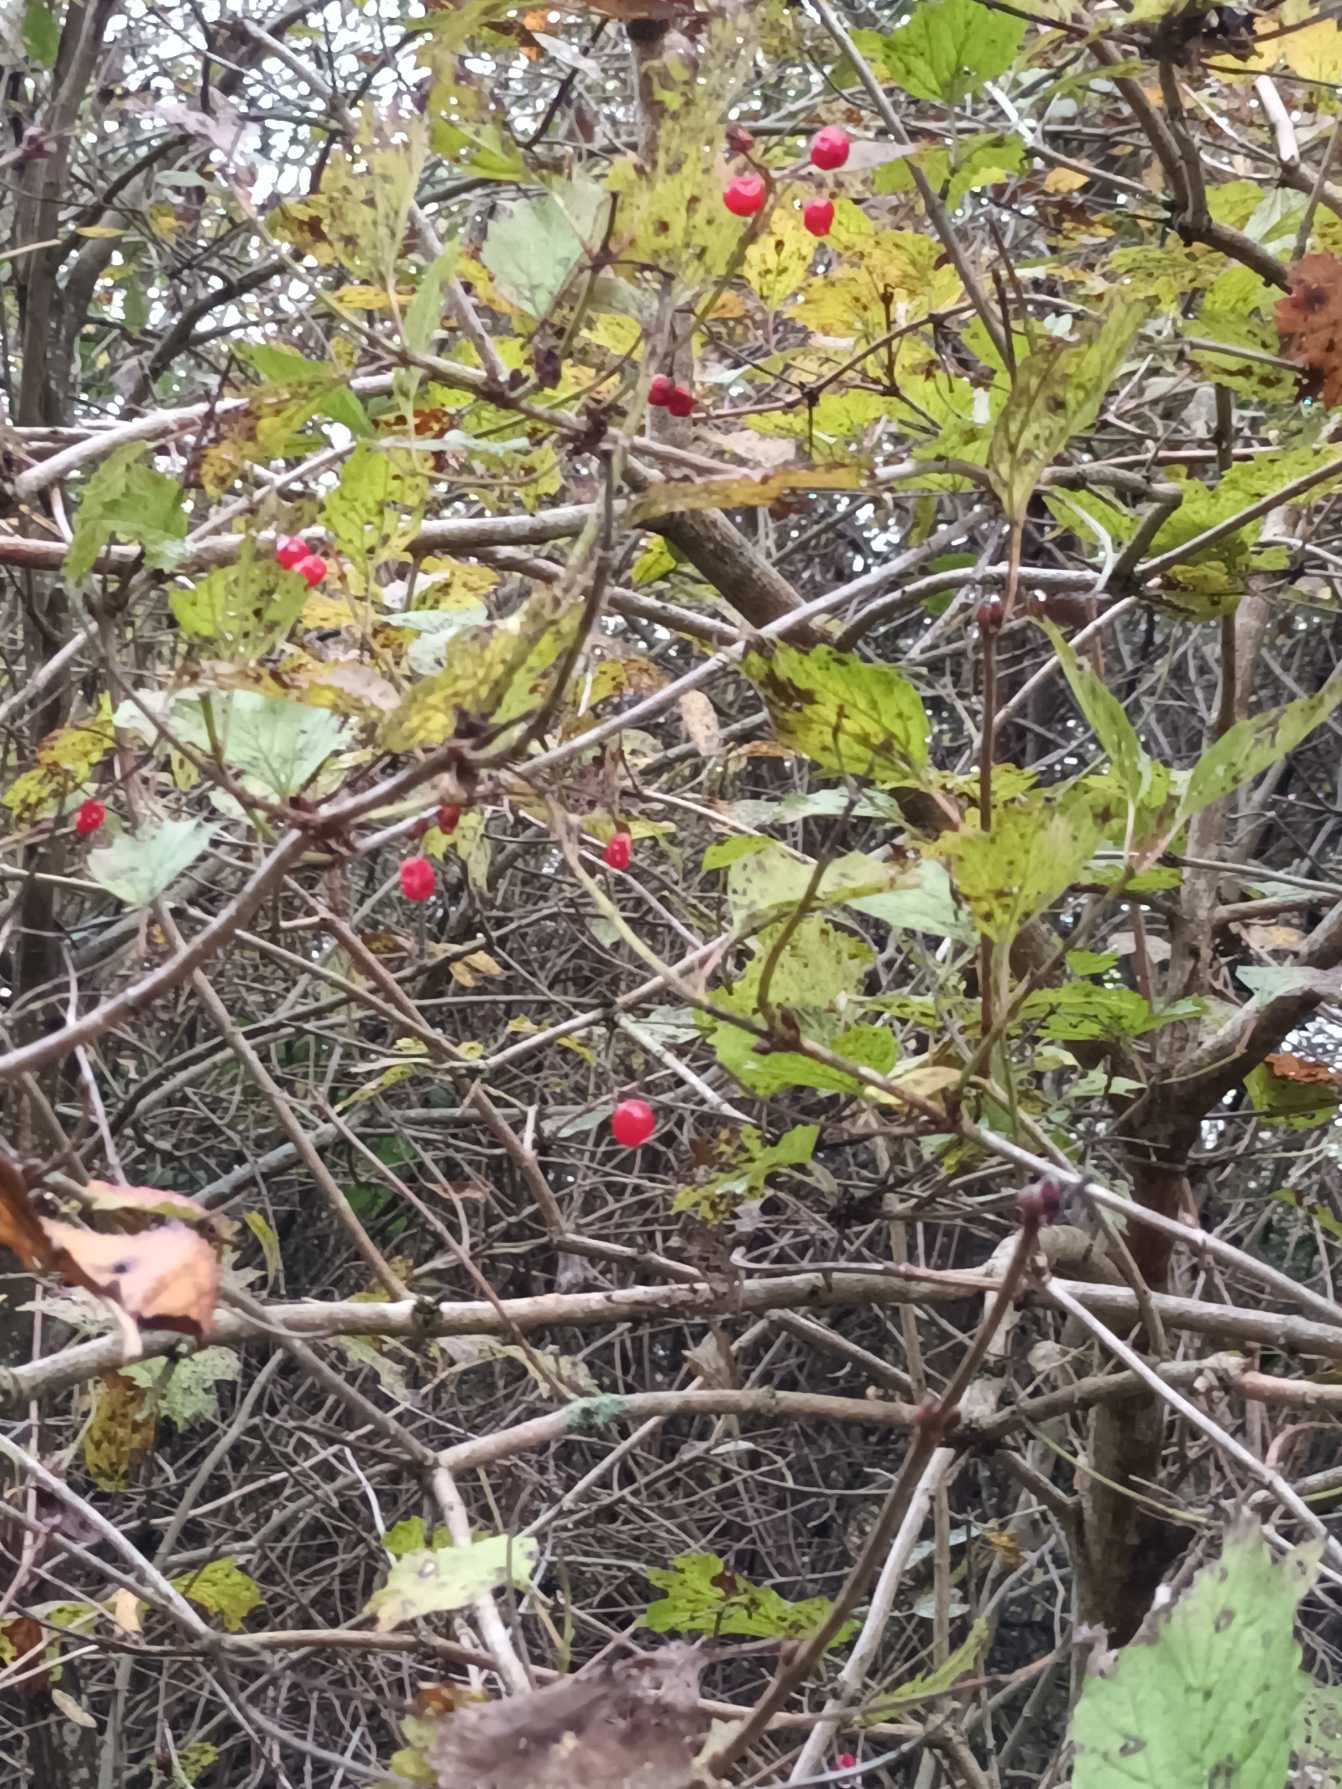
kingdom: Plantae
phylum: Tracheophyta
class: Magnoliopsida
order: Dipsacales
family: Viburnaceae
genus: Viburnum
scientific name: Viburnum opulus
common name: Kvalkved
